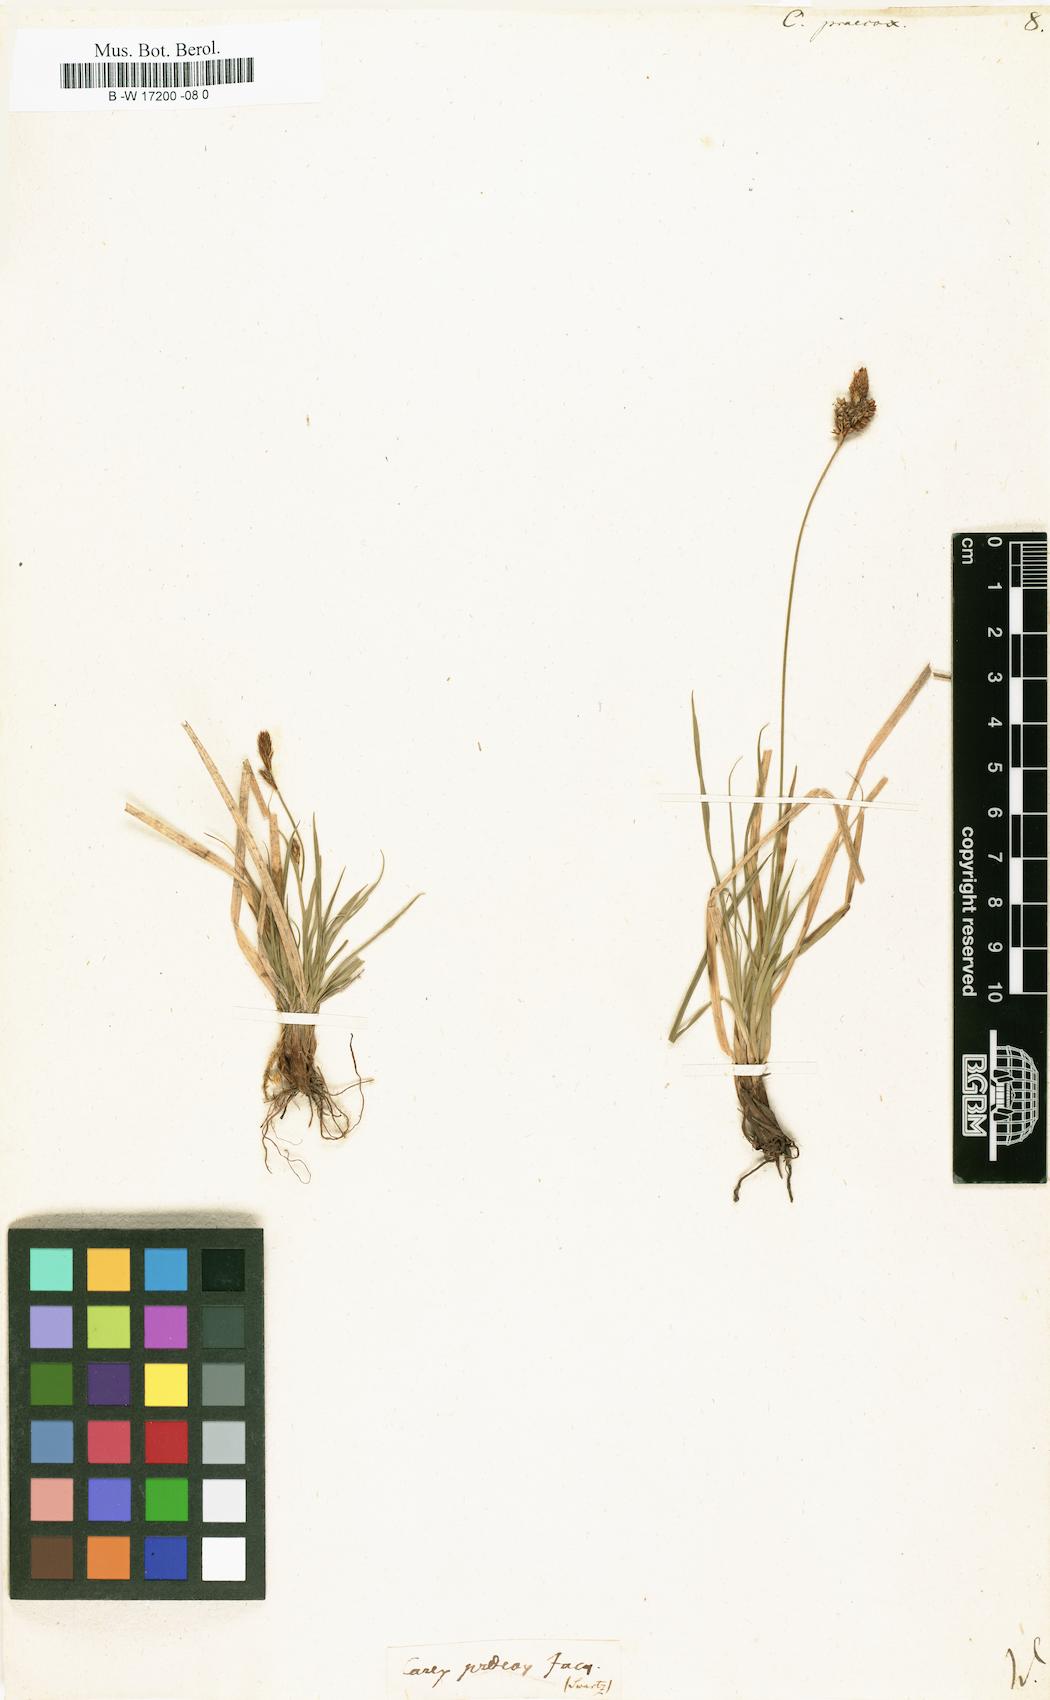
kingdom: Plantae
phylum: Tracheophyta
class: Liliopsida
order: Poales
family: Cyperaceae
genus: Carex
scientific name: Carex praecox
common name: Early sedge
